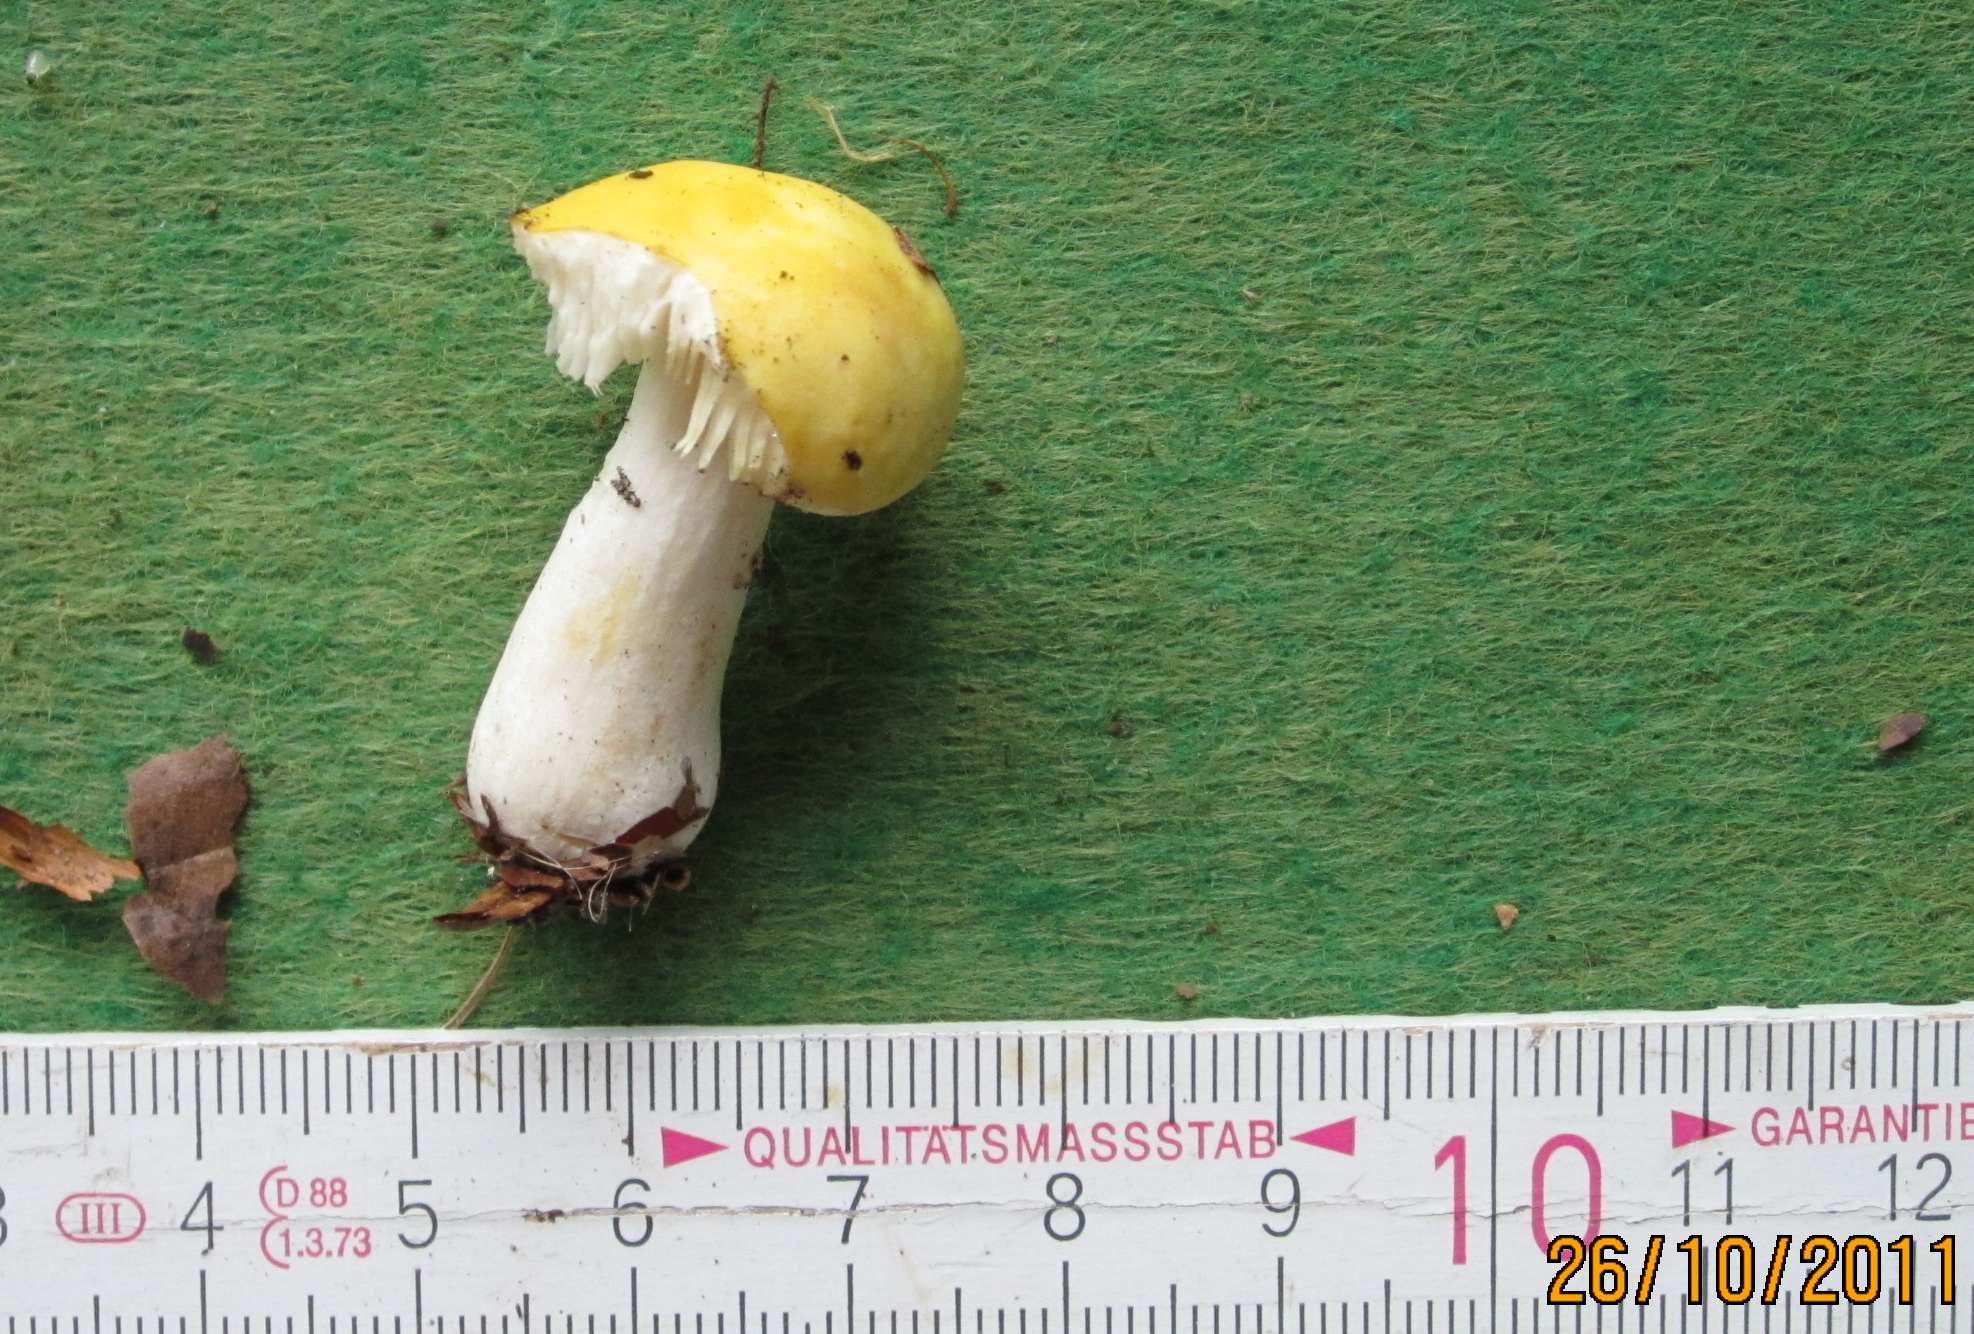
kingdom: Fungi
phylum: Basidiomycota
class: Agaricomycetes
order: Russulales
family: Russulaceae
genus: Russula
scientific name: Russula solaris
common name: sol-skørhat
